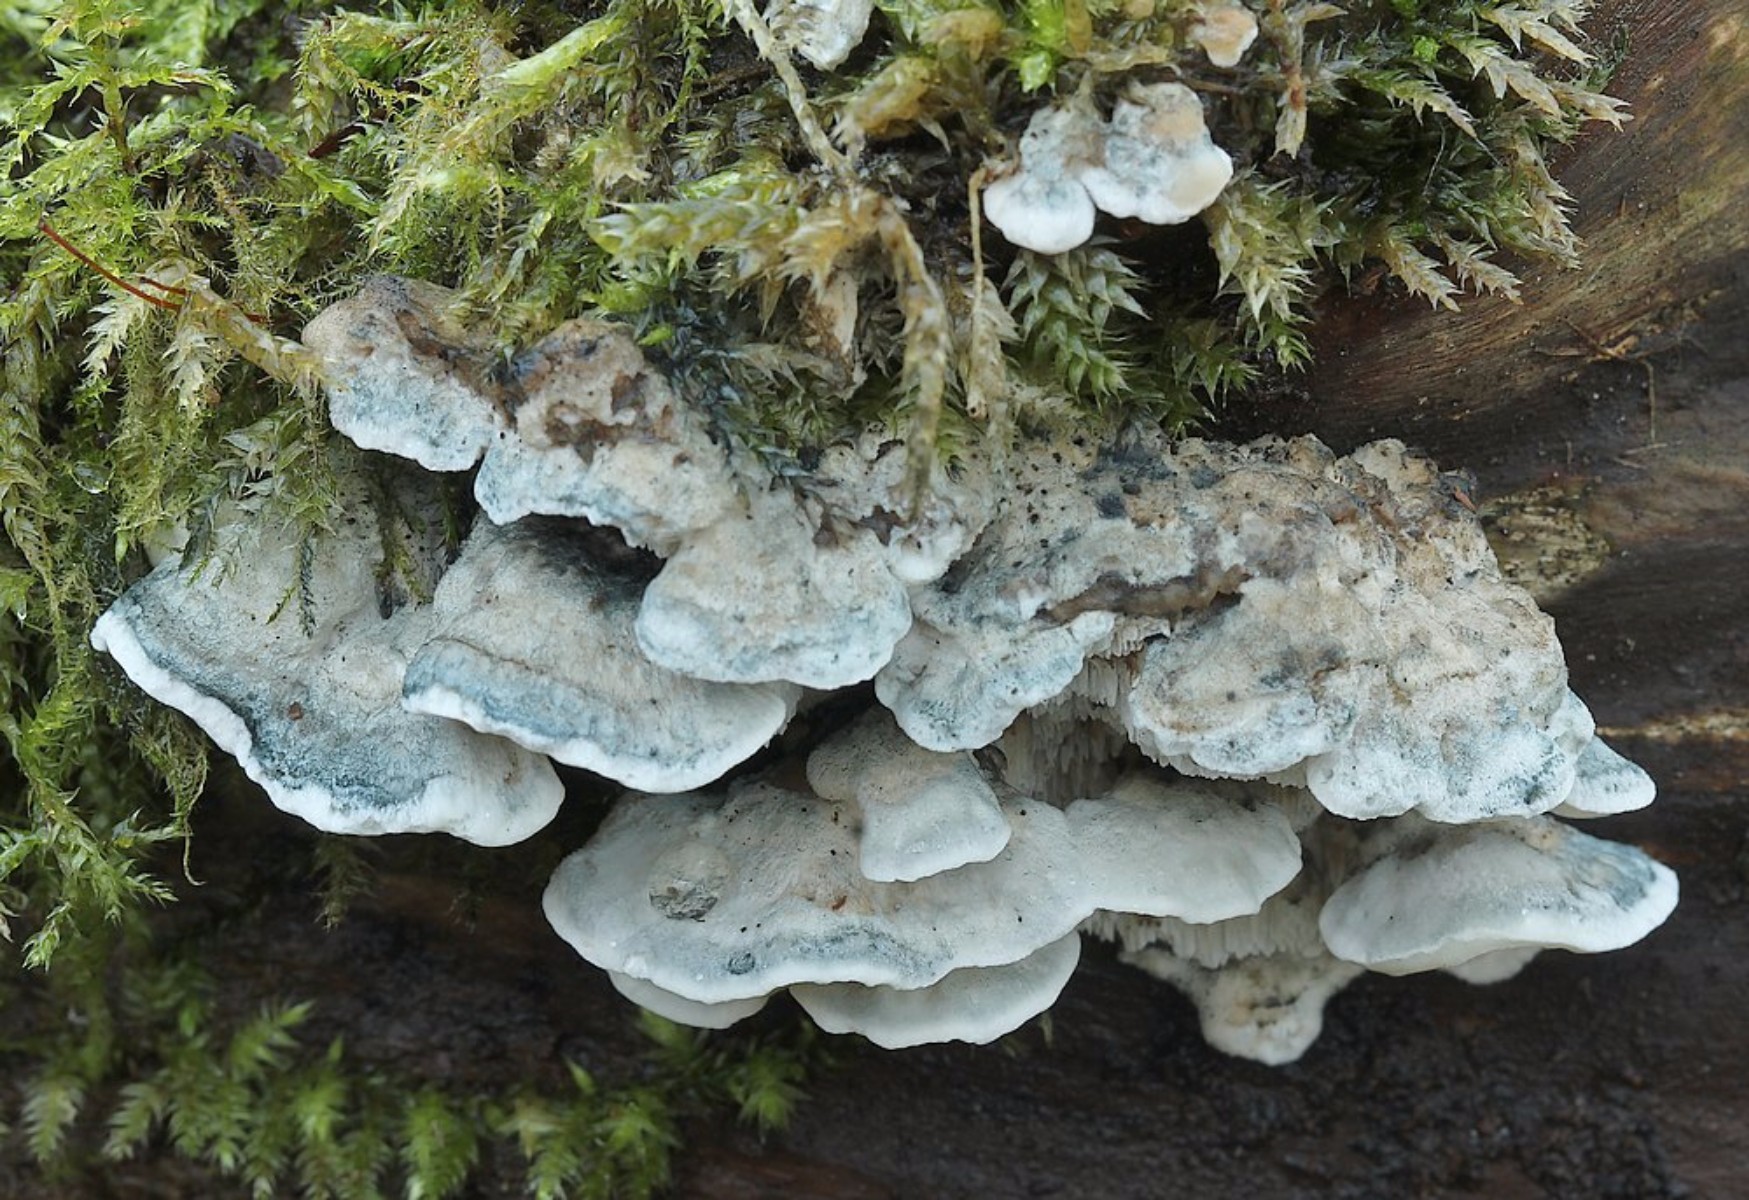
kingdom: Fungi
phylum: Basidiomycota
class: Agaricomycetes
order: Polyporales
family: Polyporaceae
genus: Cyanosporus
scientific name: Cyanosporus alni
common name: blegblå kødporesvamp
